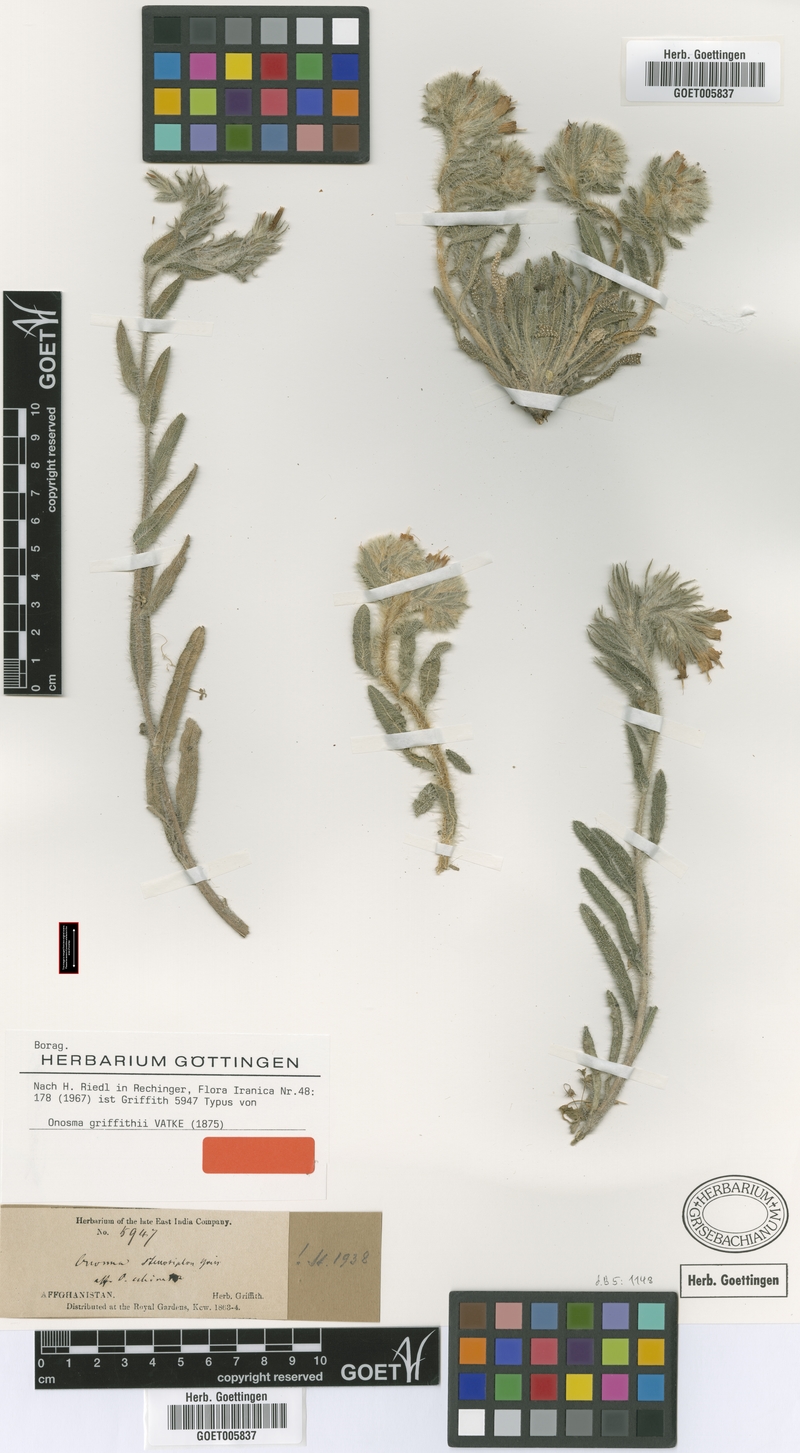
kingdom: Plantae
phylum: Tracheophyta
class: Magnoliopsida
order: Boraginales
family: Boraginaceae
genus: Onosma
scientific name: Onosma griffithii
